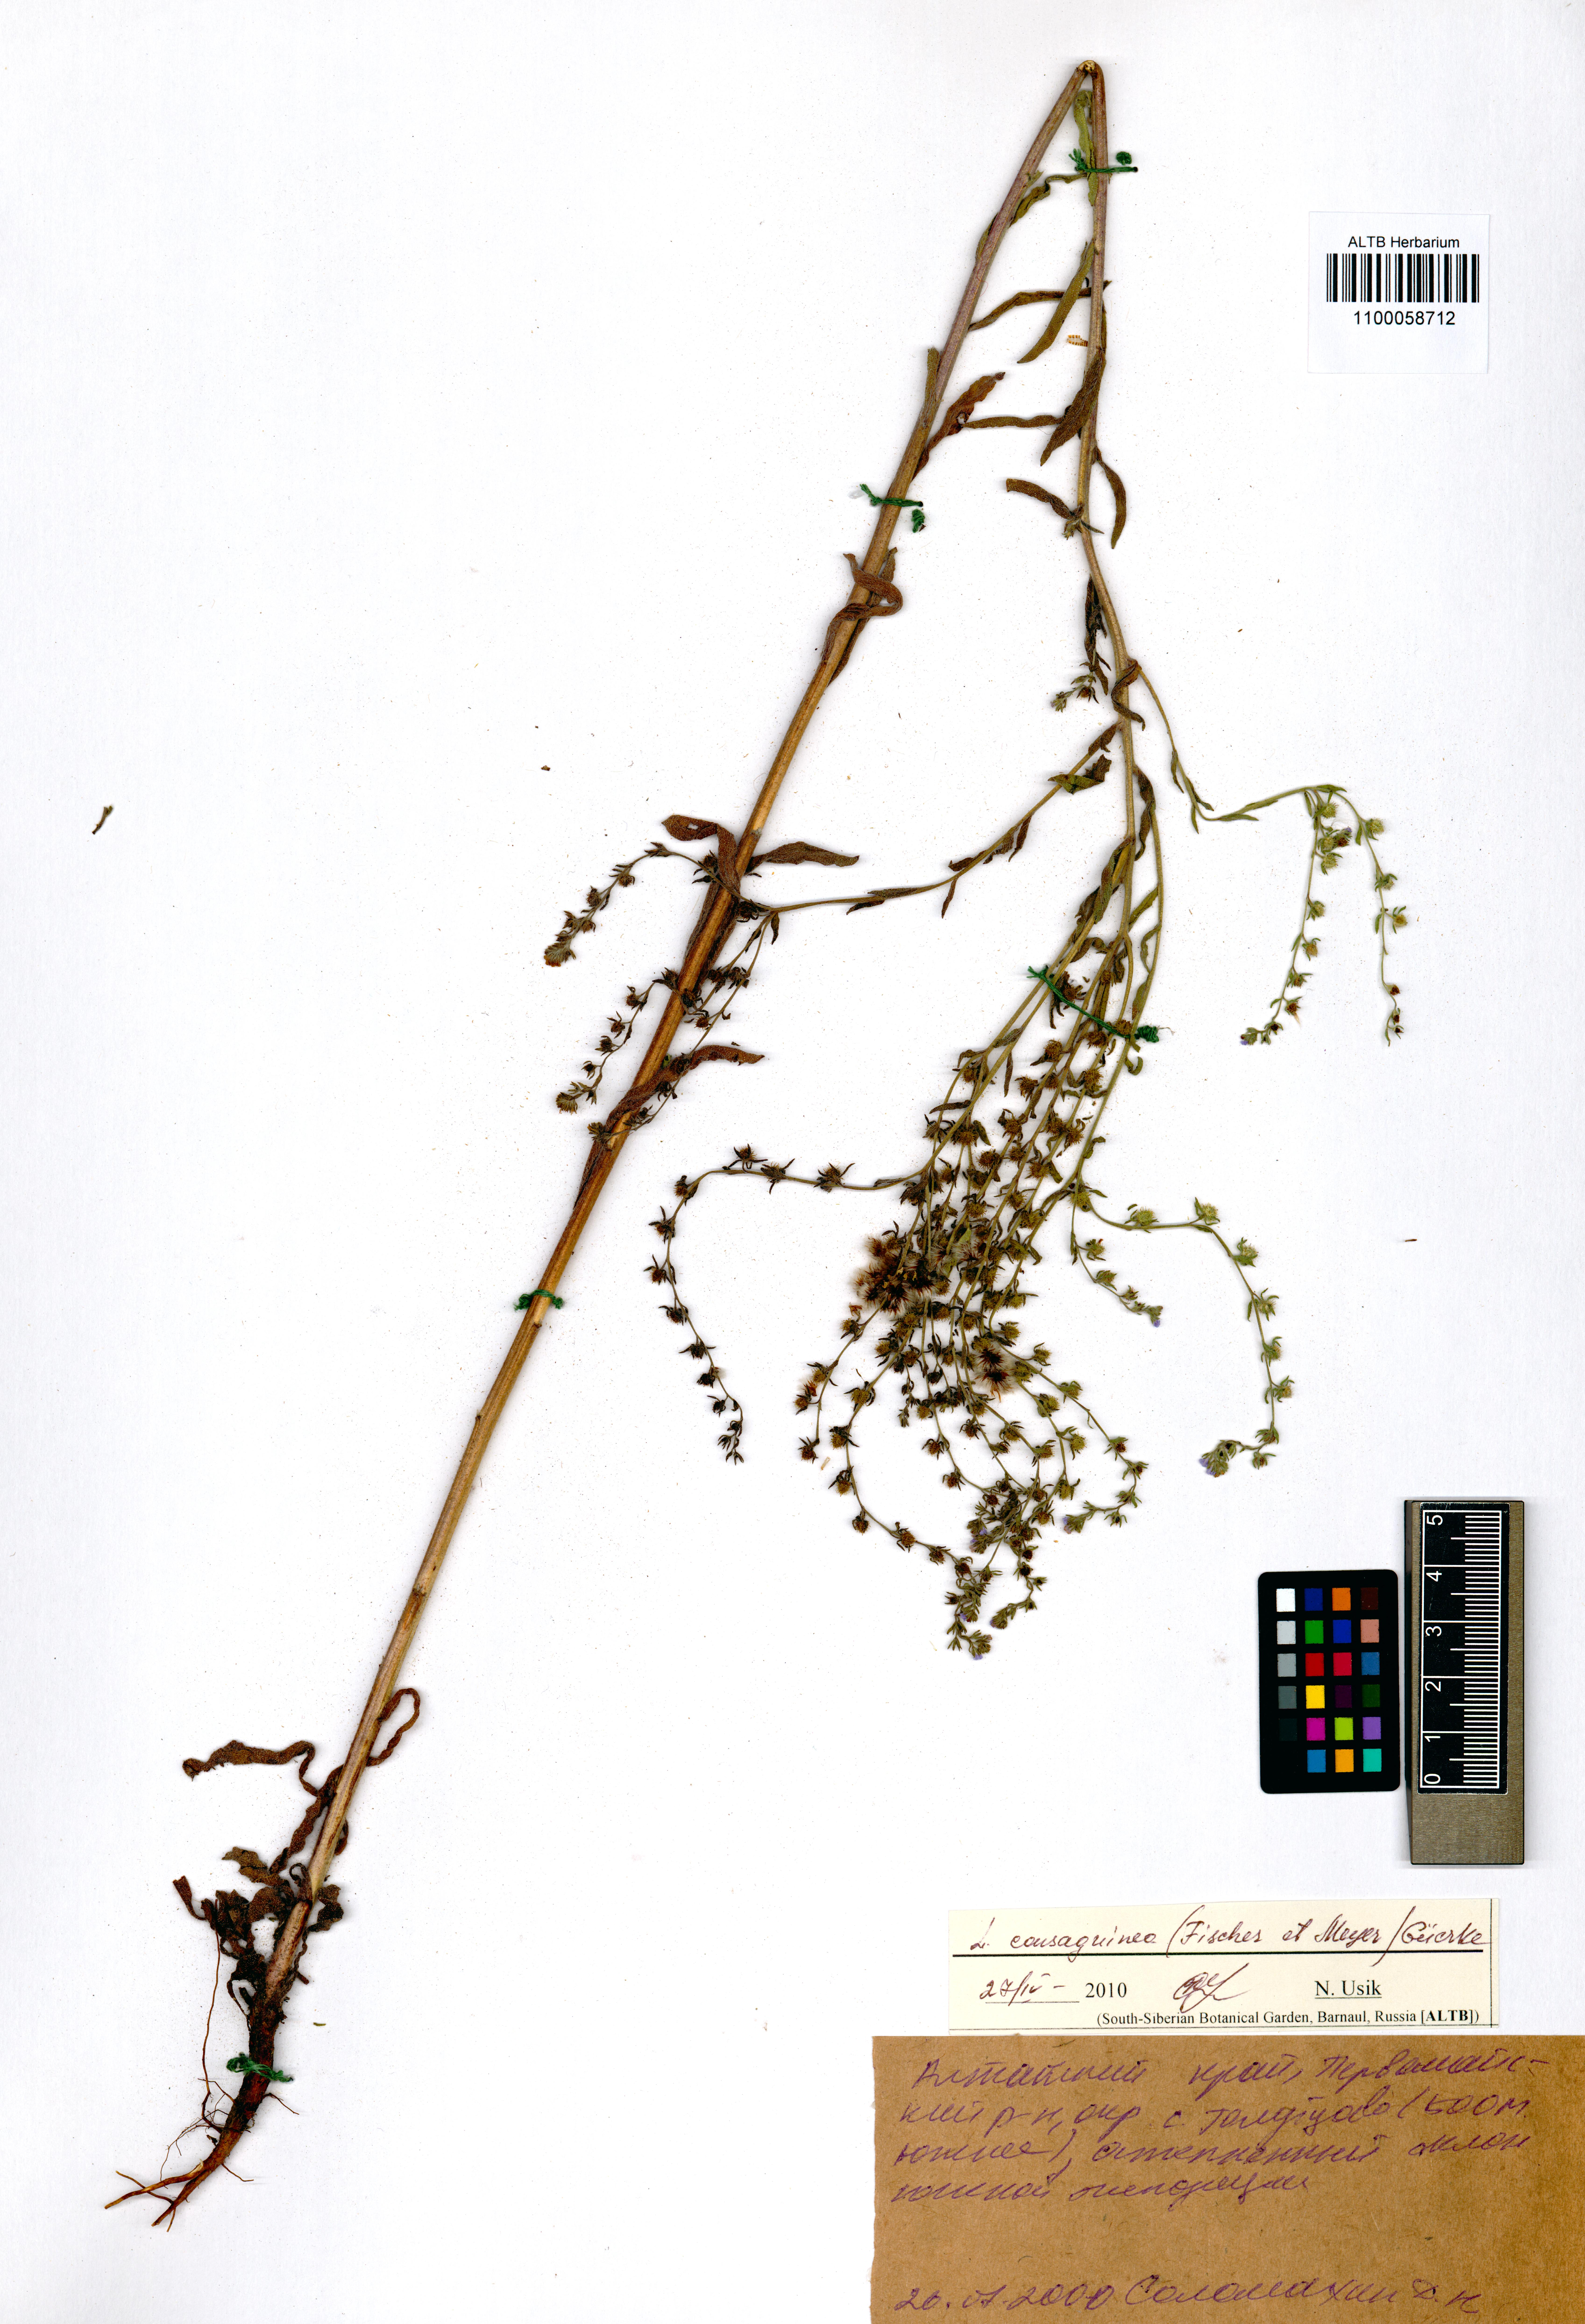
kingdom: Plantae
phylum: Tracheophyta
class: Magnoliopsida
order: Boraginales
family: Boraginaceae
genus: Lappula
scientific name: Lappula squarrosa
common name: European stickseed
